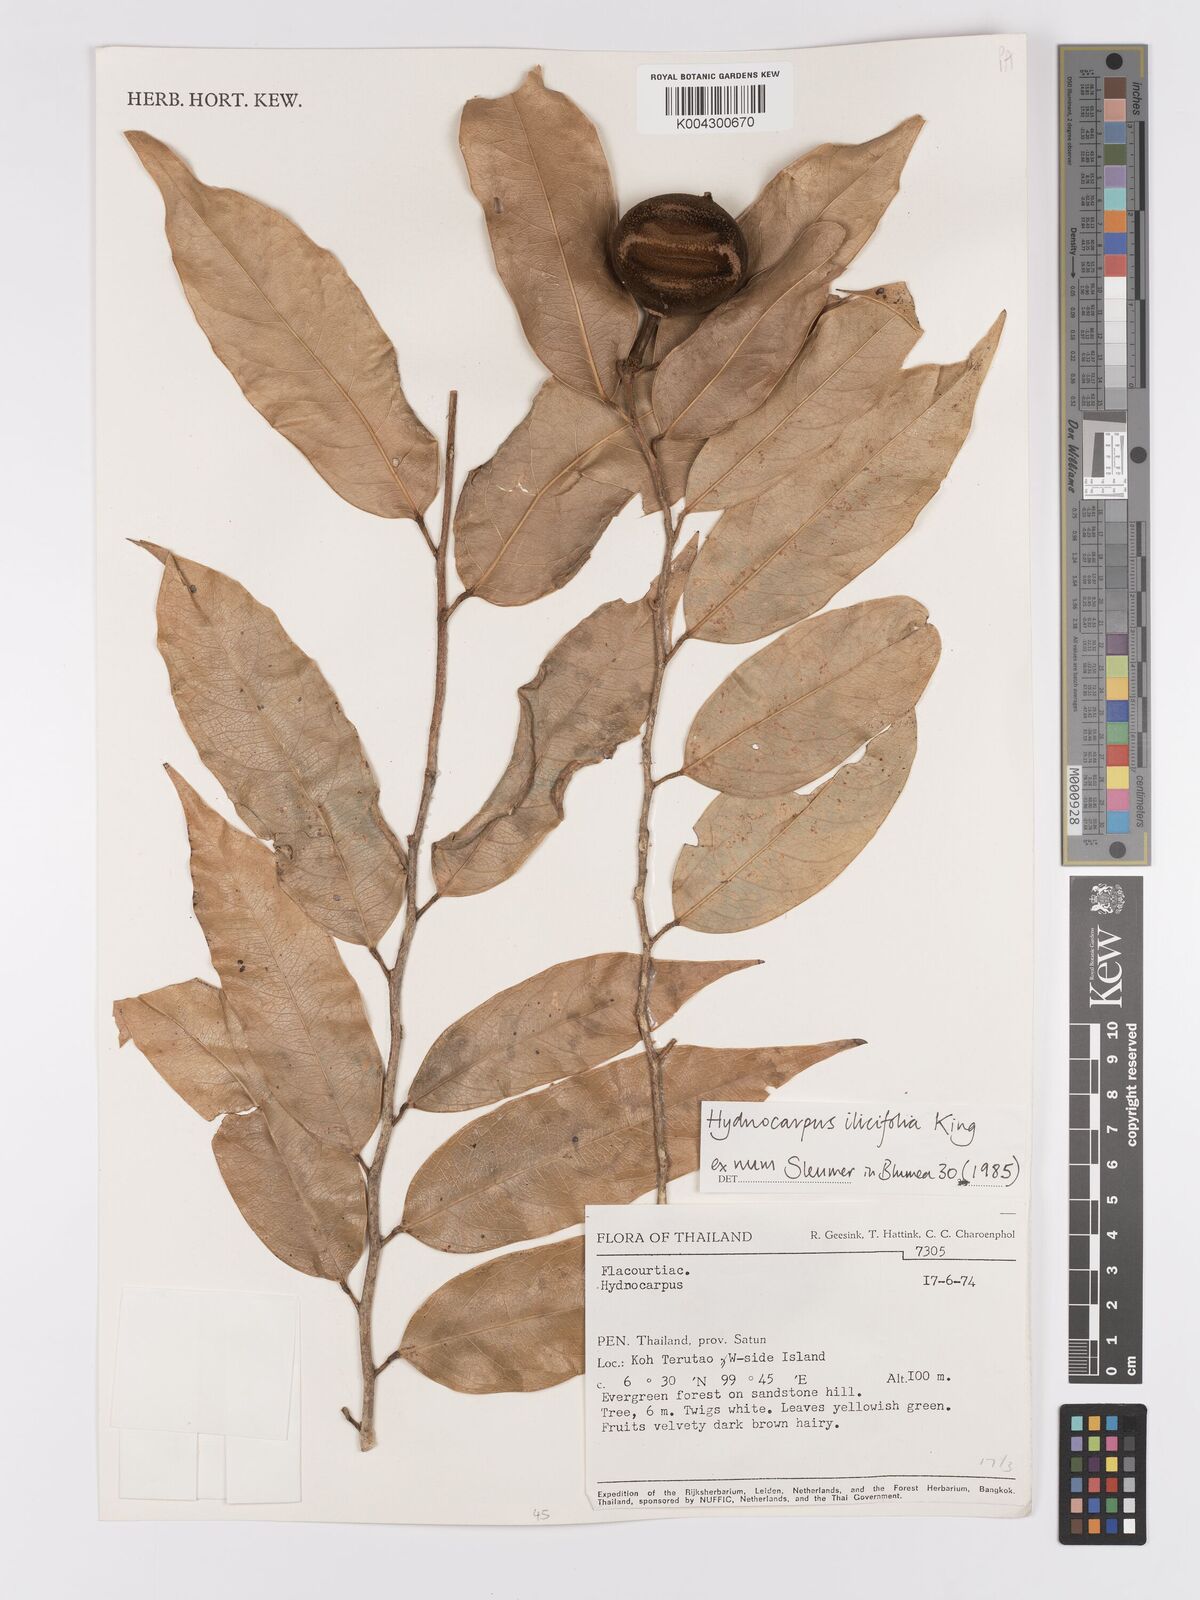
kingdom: Plantae
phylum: Tracheophyta
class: Magnoliopsida
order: Malpighiales
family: Achariaceae
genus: Hydnocarpus
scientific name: Hydnocarpus ilicifolius
